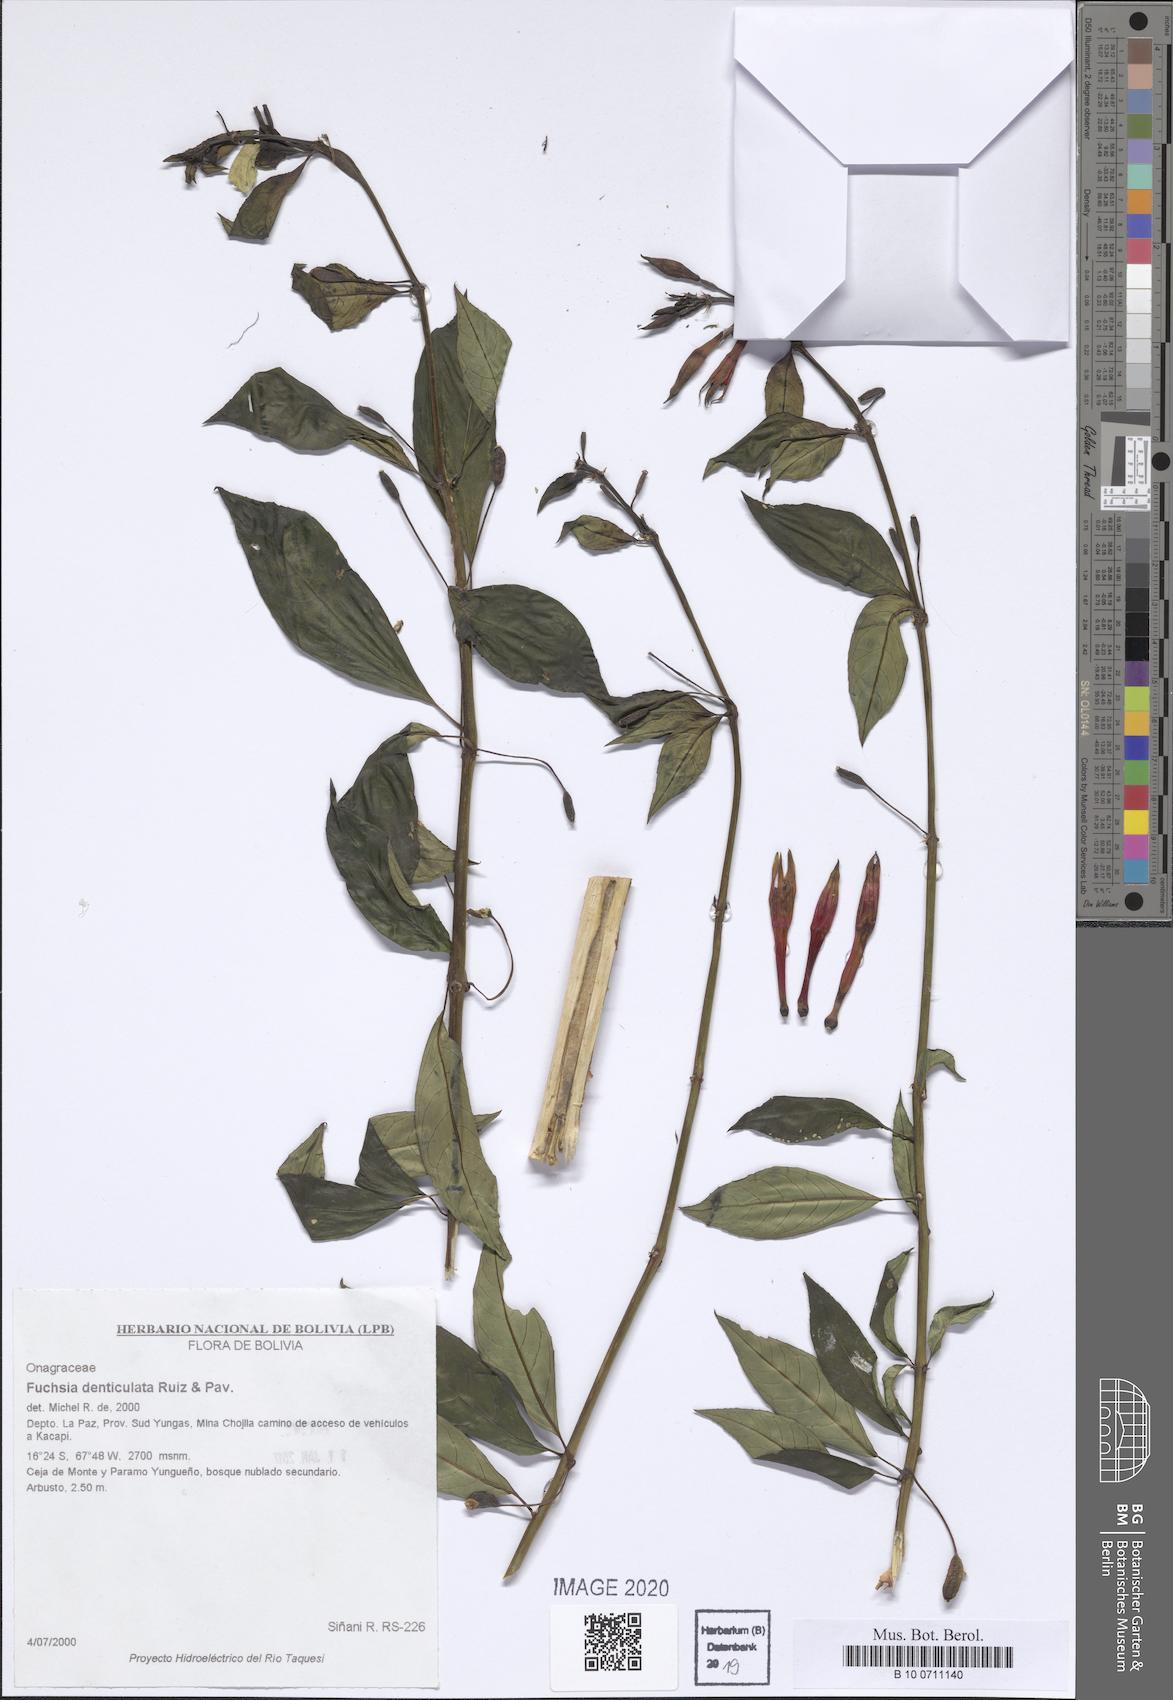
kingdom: Plantae
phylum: Tracheophyta
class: Magnoliopsida
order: Myrtales
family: Onagraceae
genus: Fuchsia
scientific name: Fuchsia denticulata
